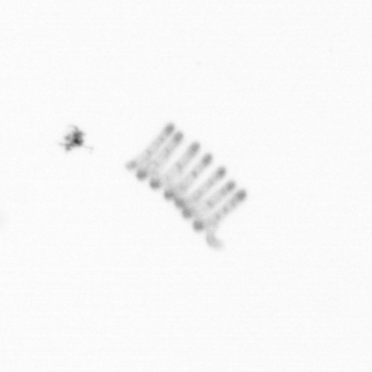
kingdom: Chromista
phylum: Ochrophyta
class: Bacillariophyceae
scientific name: Bacillariophyceae
